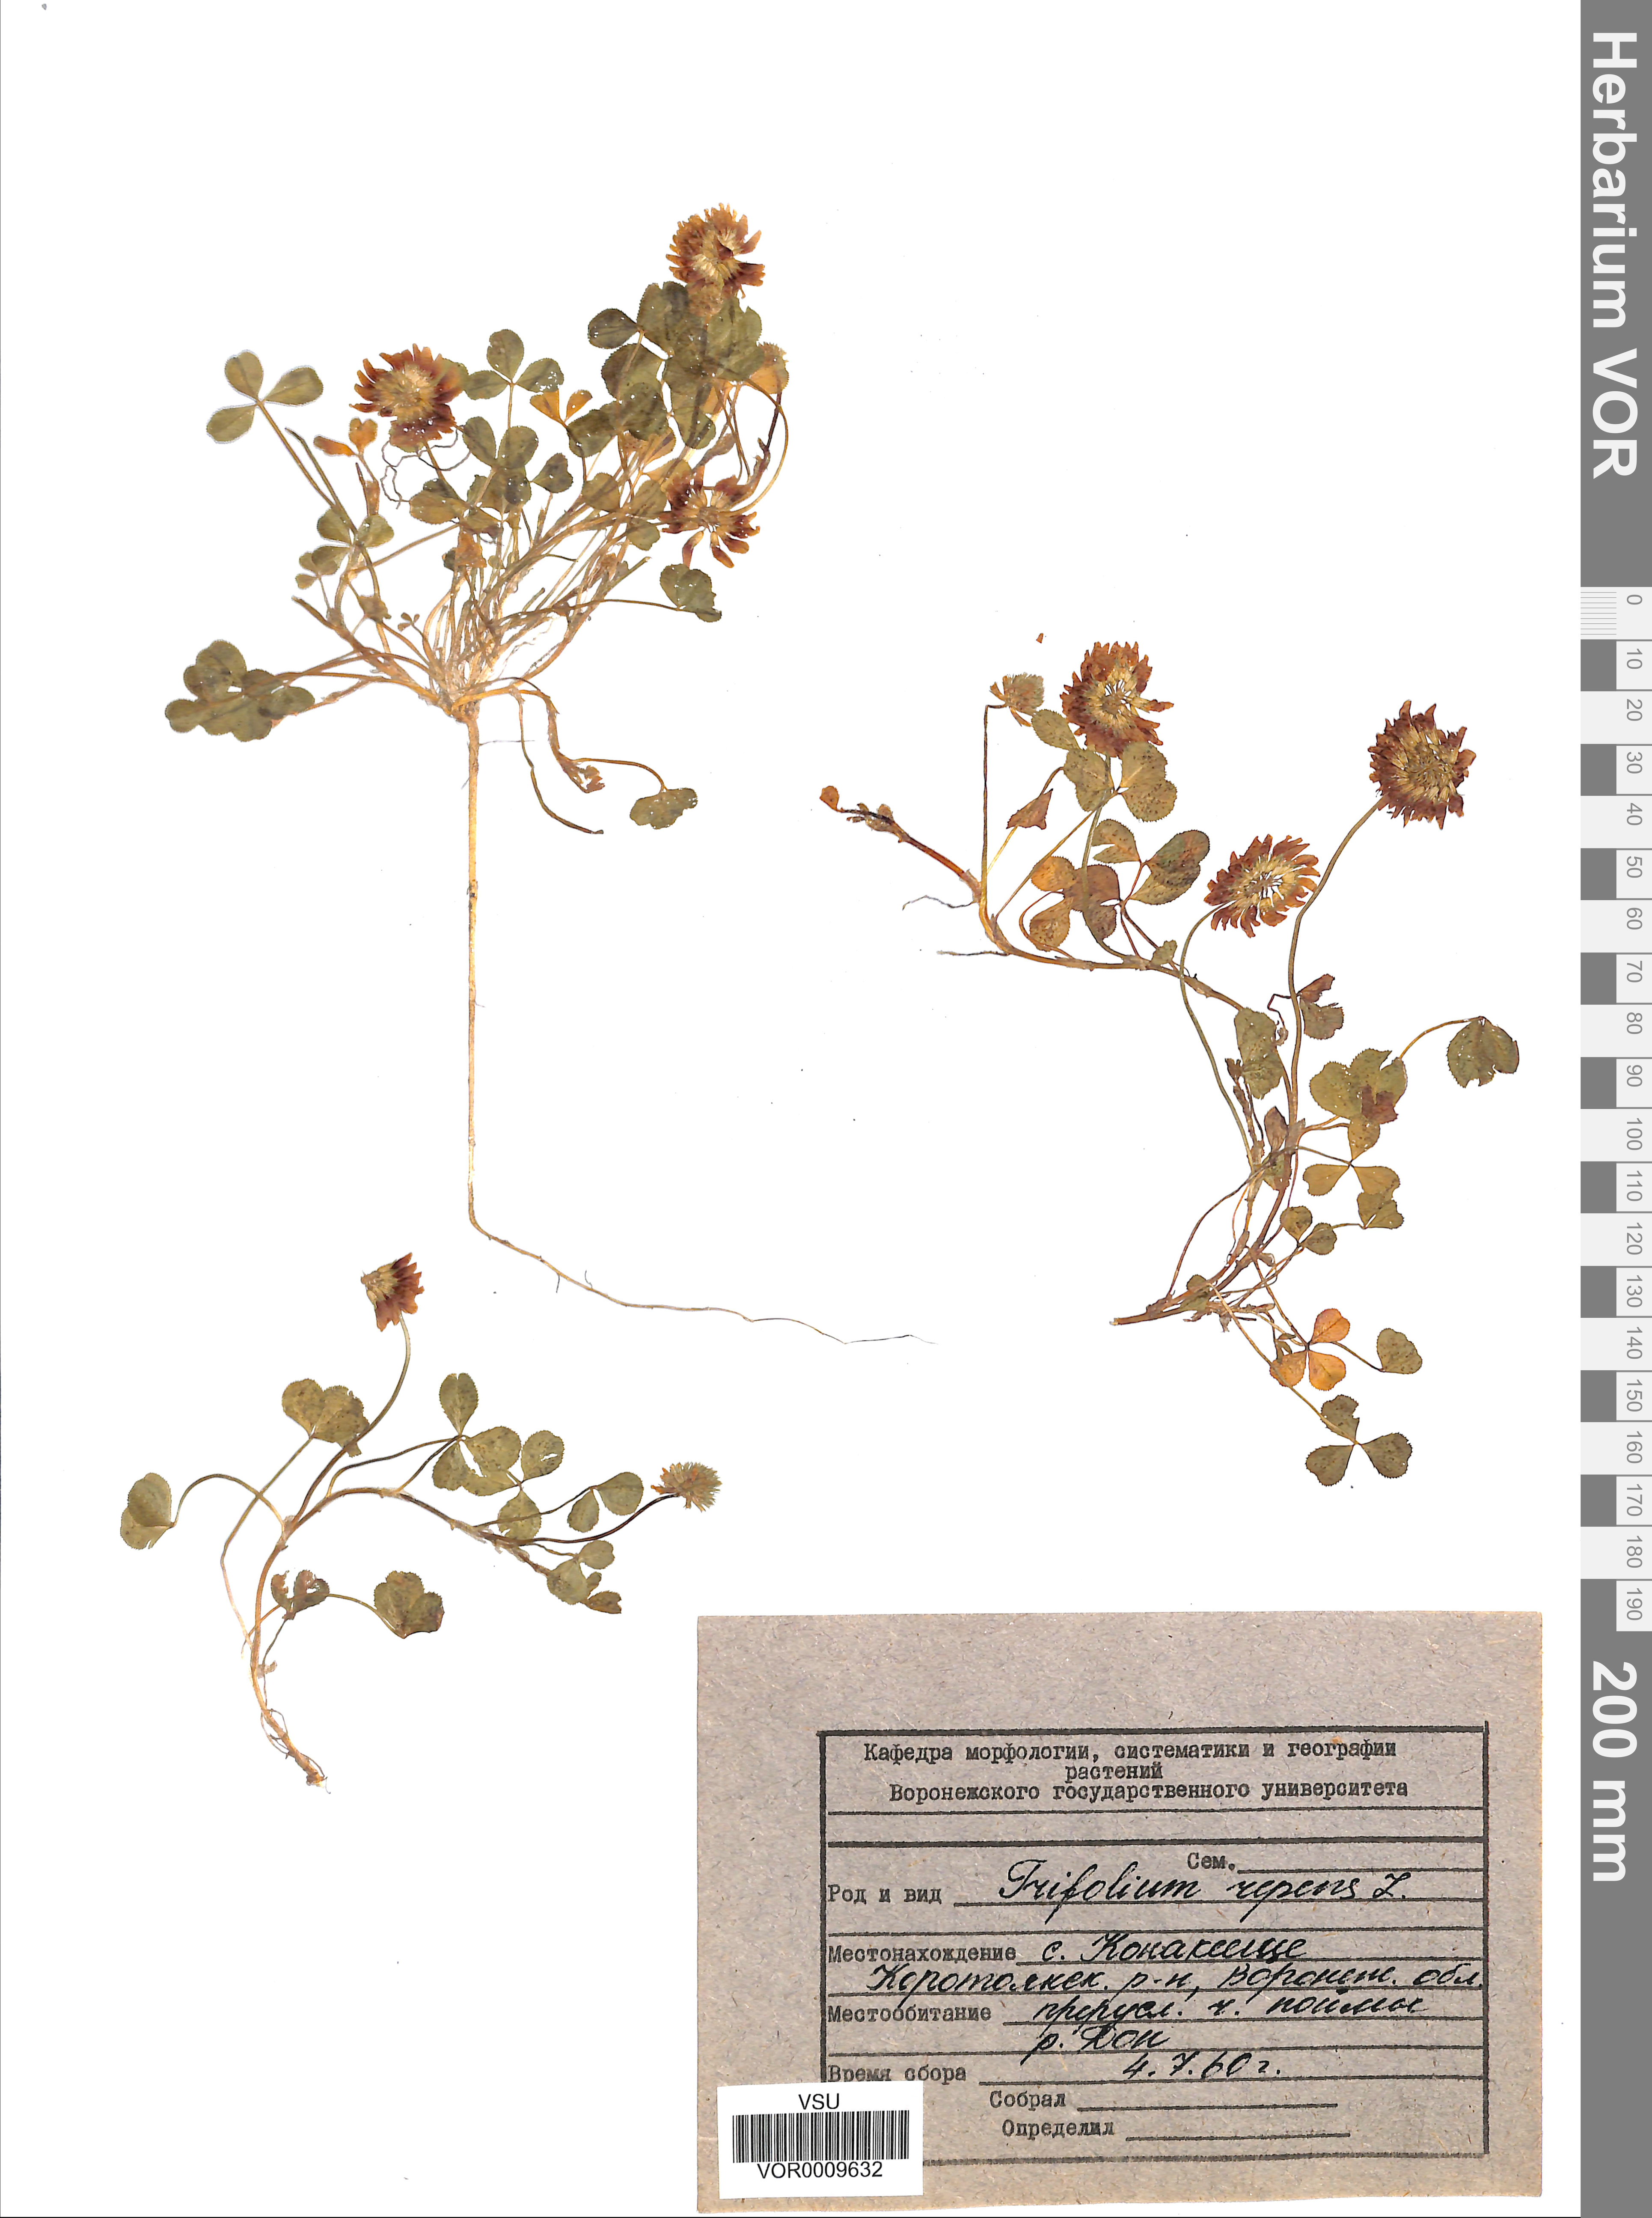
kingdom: Plantae
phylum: Tracheophyta
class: Magnoliopsida
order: Fabales
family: Fabaceae
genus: Trifolium
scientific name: Trifolium repens
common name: White clover
